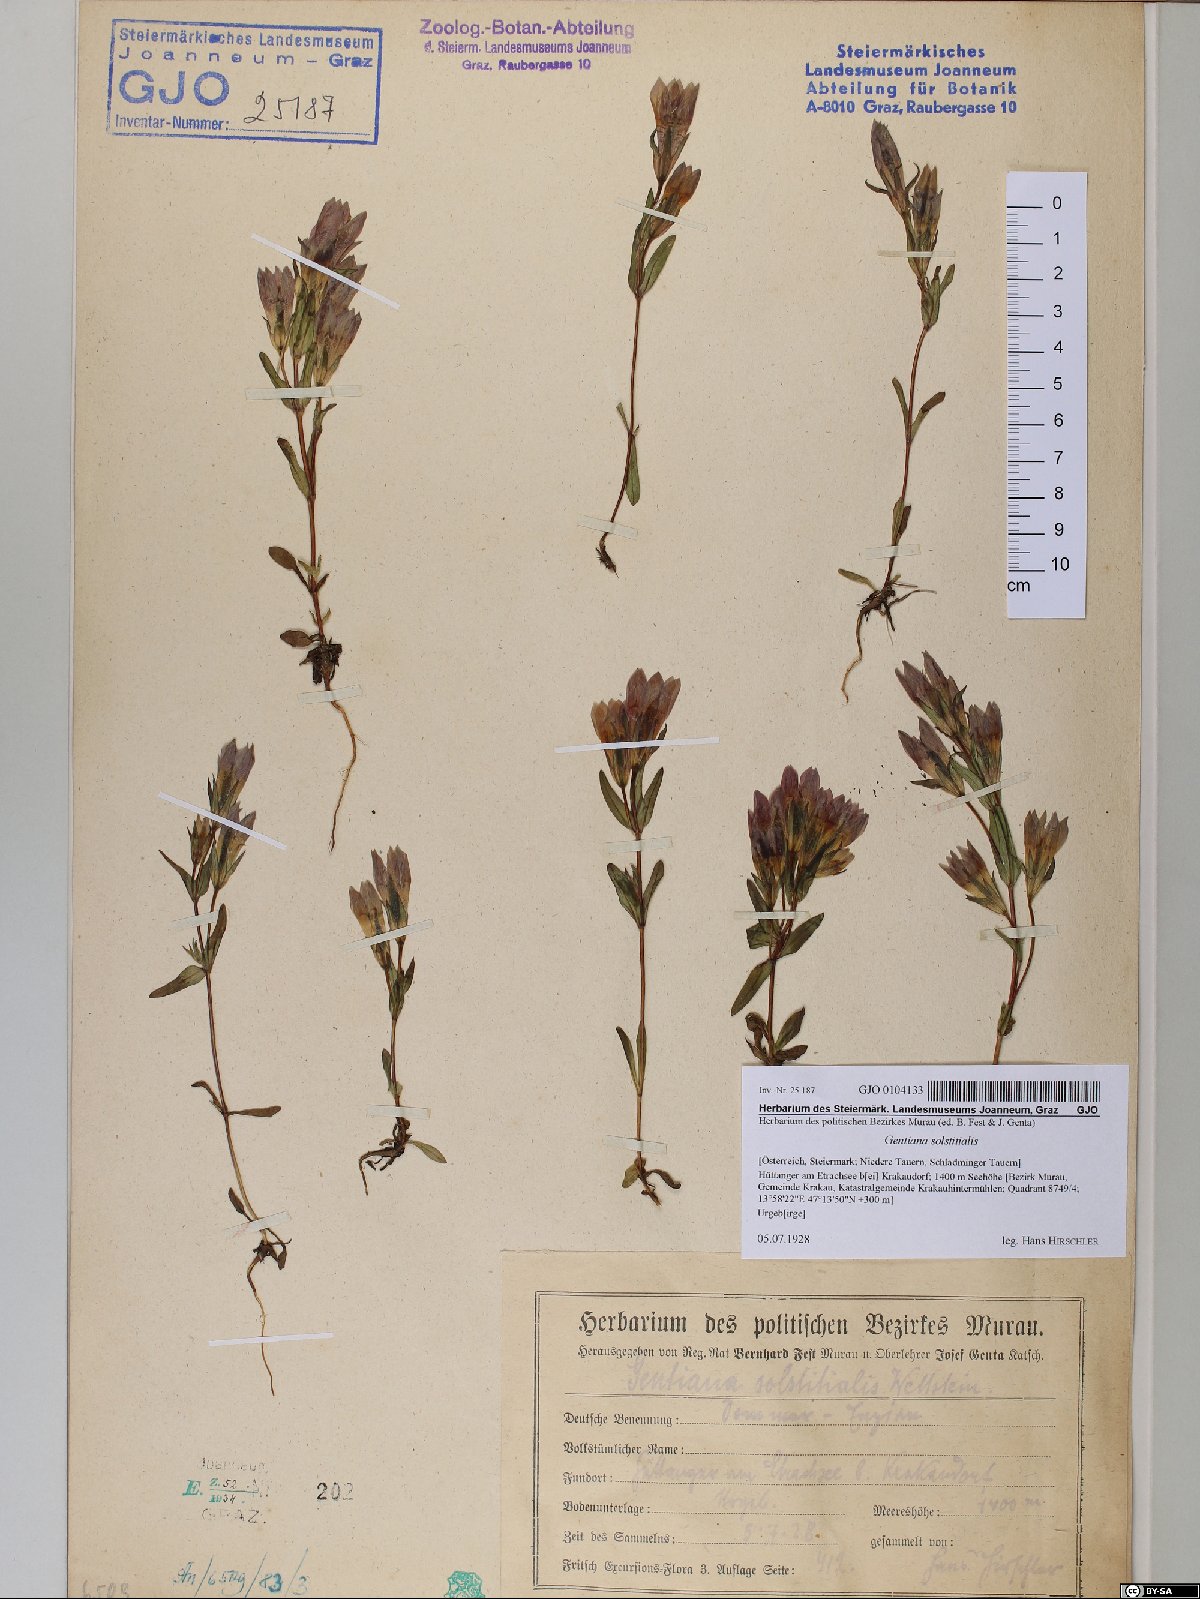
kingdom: Plantae
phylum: Tracheophyta
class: Magnoliopsida
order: Gentianales
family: Gentianaceae
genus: Gentianella
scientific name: Gentianella germanica
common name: Chiltern-gentian
